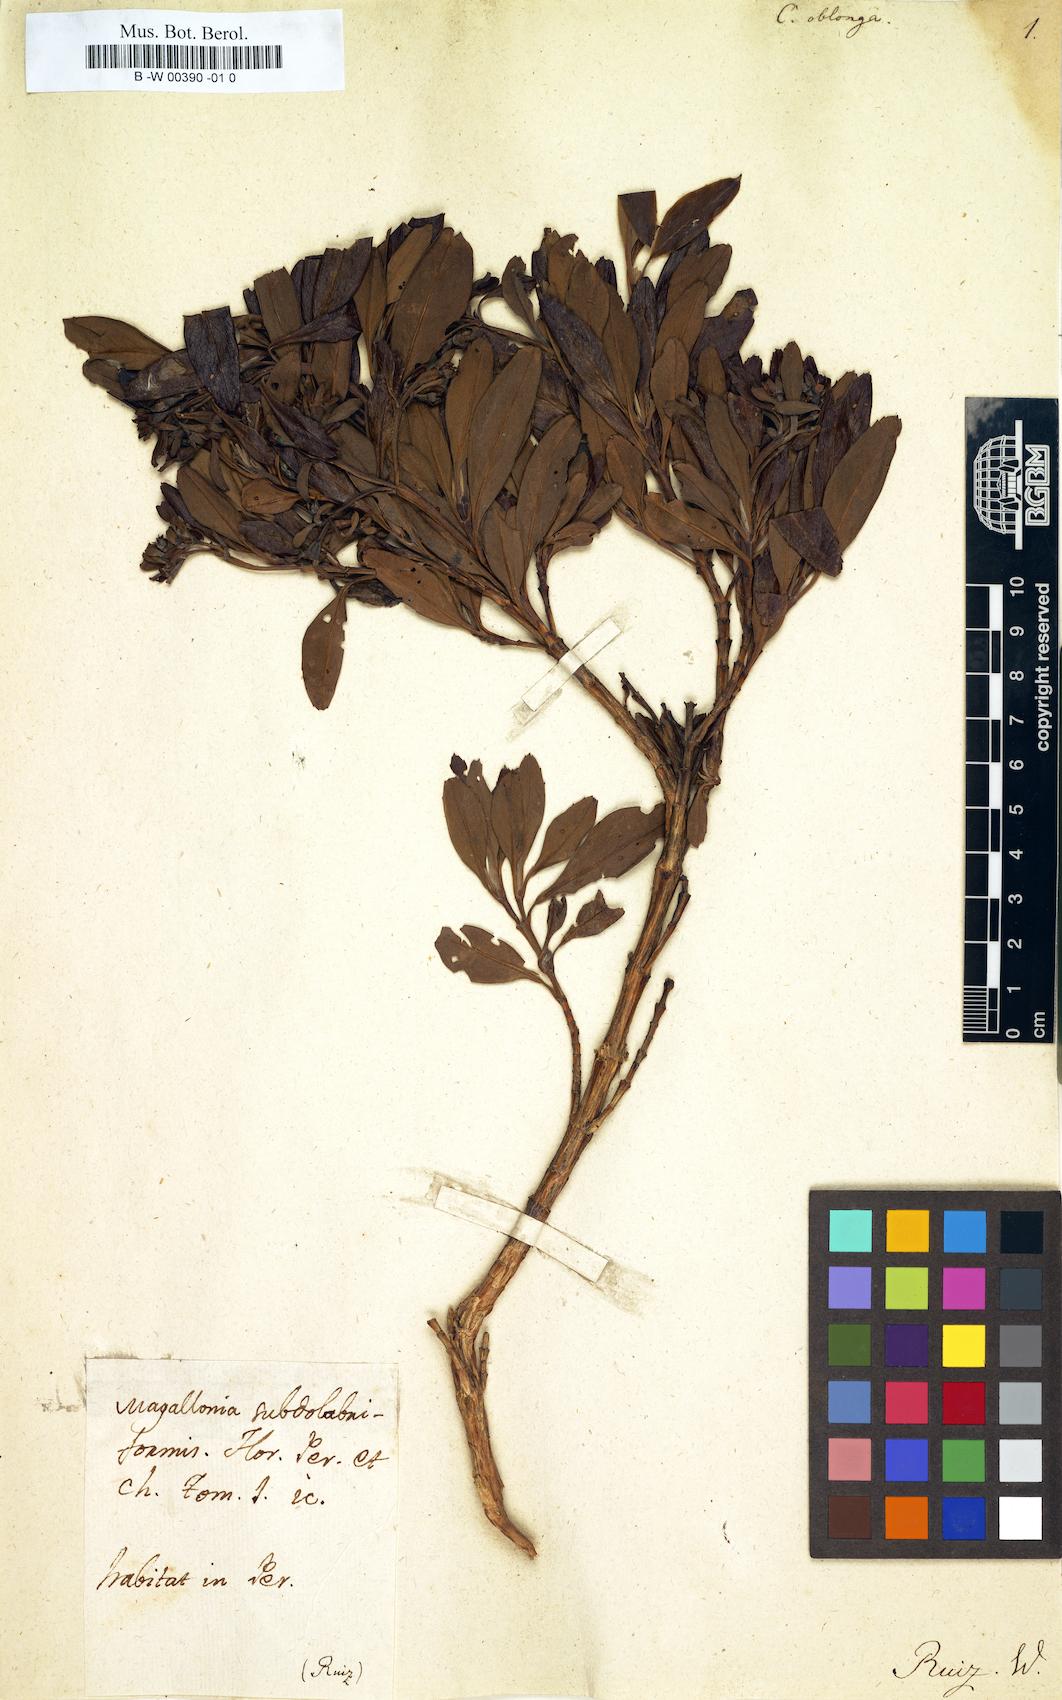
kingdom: Plantae
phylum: Tracheophyta
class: Magnoliopsida
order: Bruniales
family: Columelliaceae
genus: Columellia
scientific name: Columellia oblonga
